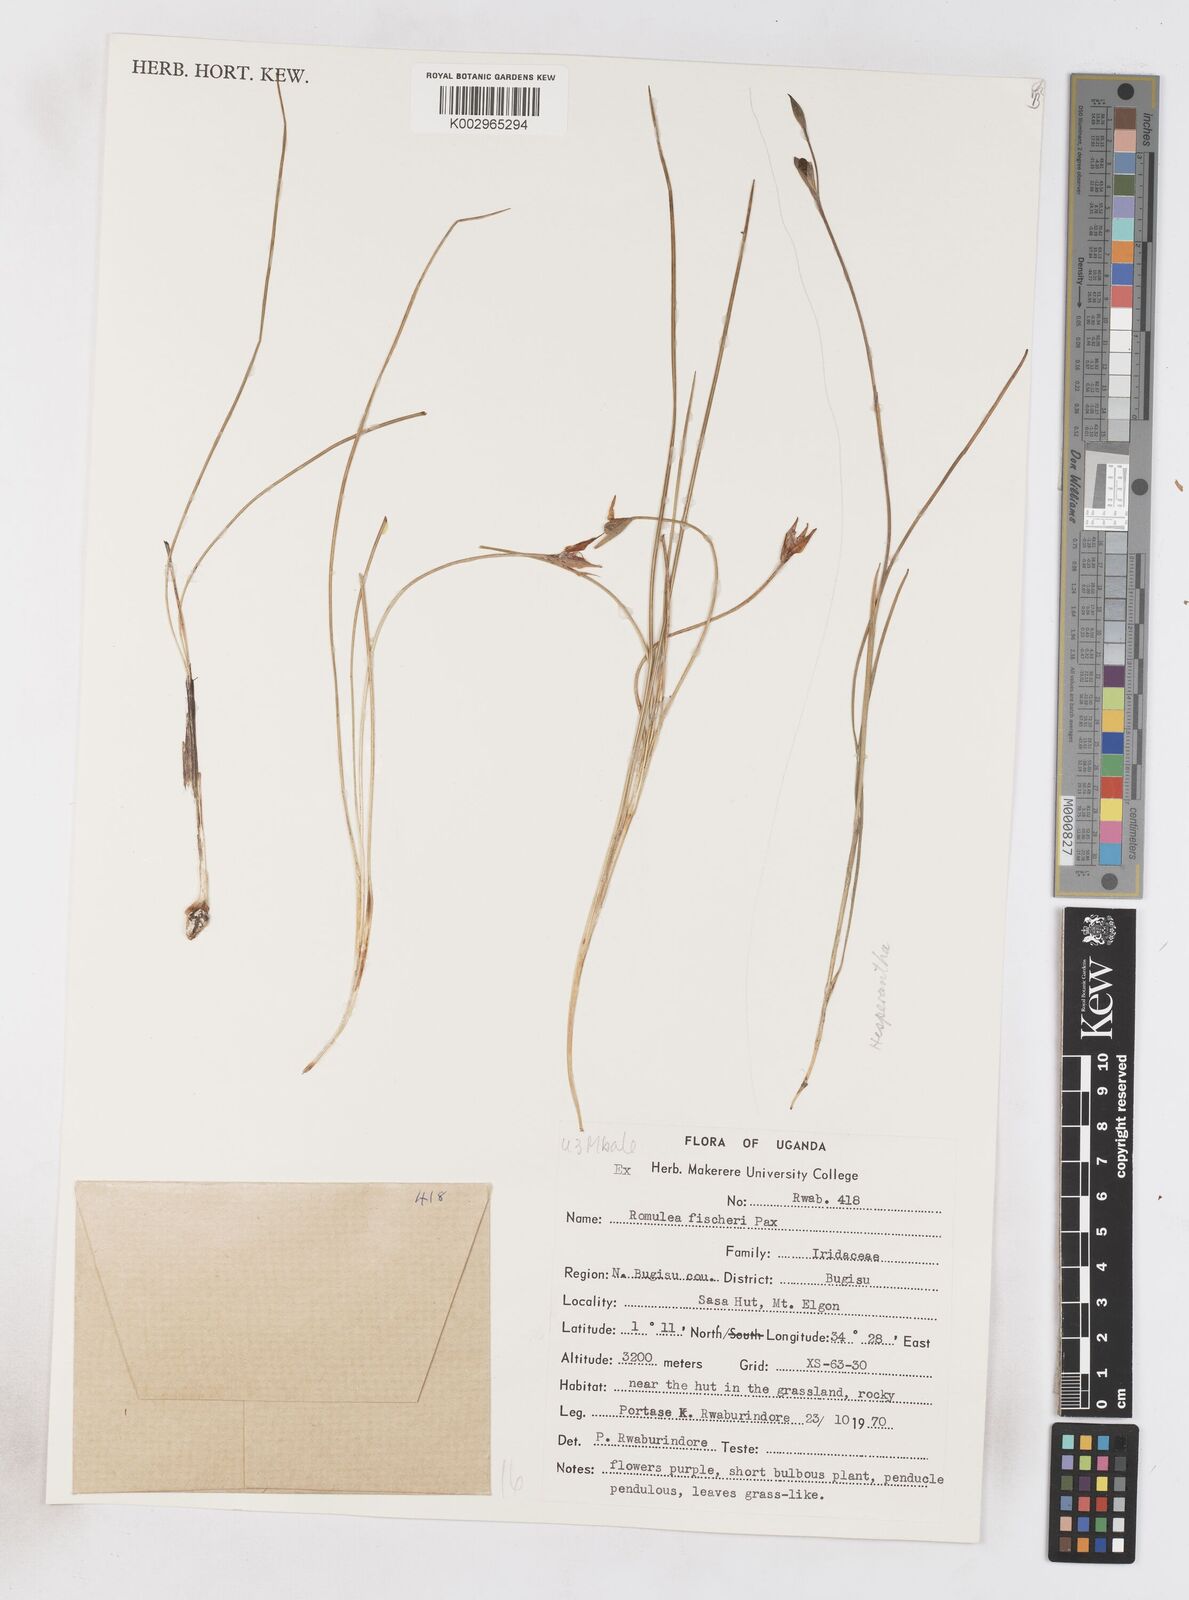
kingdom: Plantae
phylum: Tracheophyta
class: Liliopsida
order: Asparagales
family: Iridaceae
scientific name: Iridaceae
